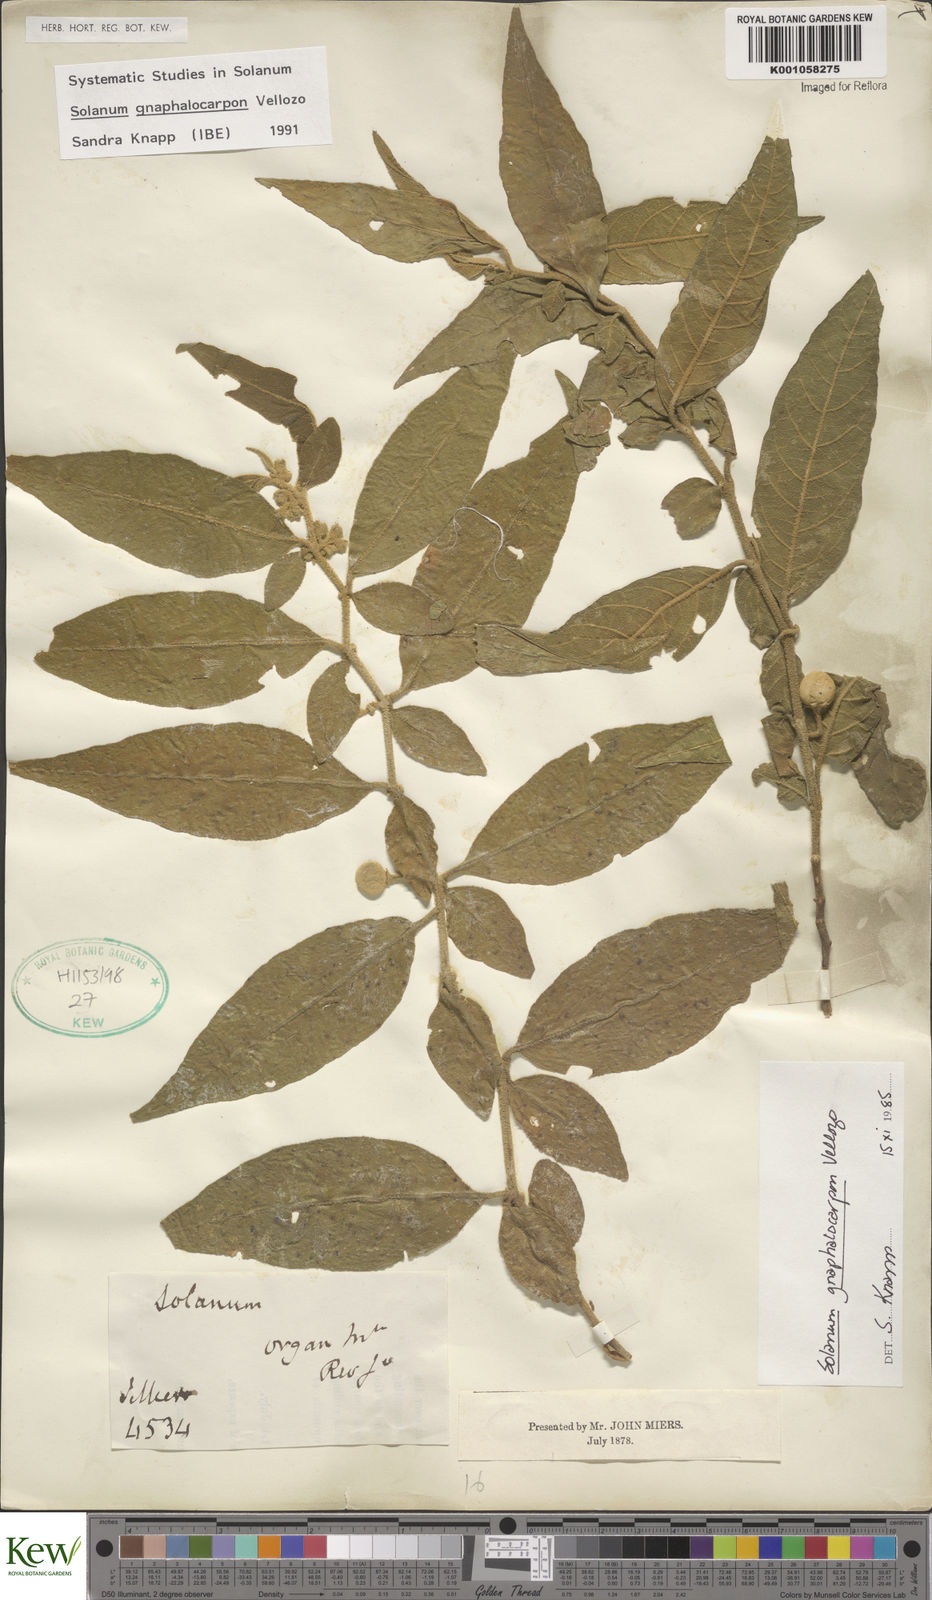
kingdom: Plantae
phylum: Tracheophyta
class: Magnoliopsida
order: Solanales
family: Solanaceae
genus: Solanum
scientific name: Solanum gnaphalocarpum
